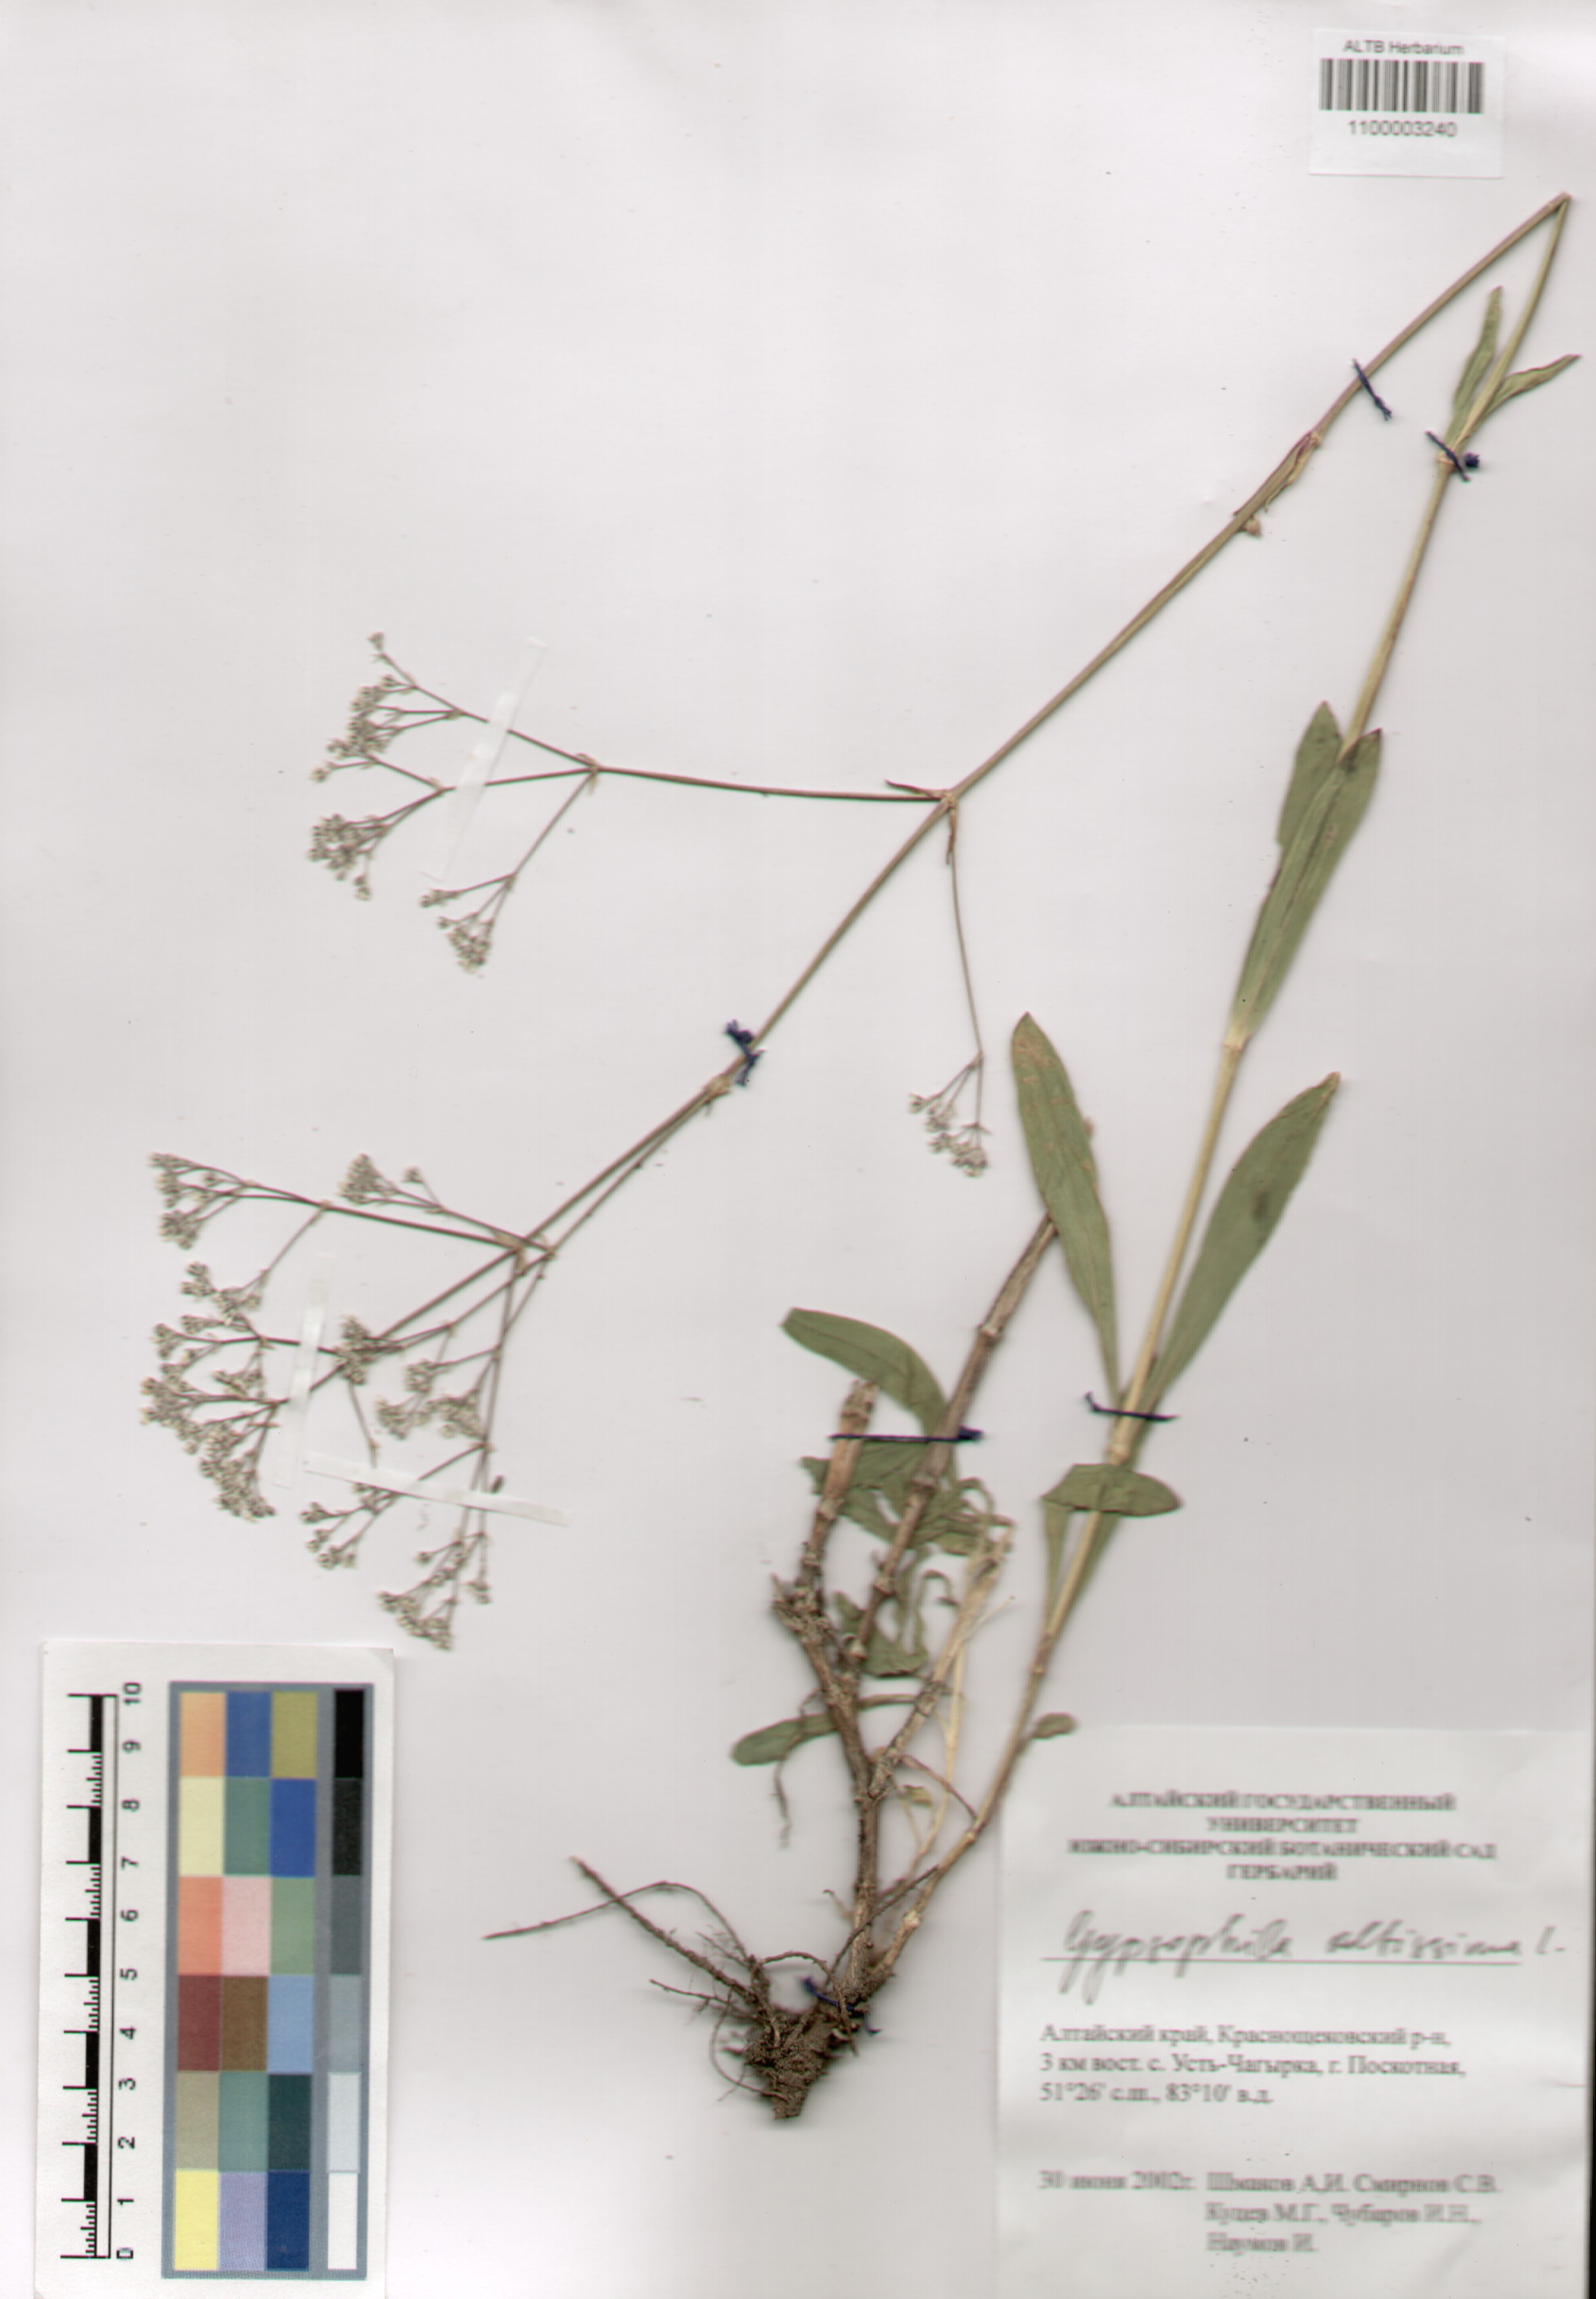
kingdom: Plantae
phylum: Tracheophyta
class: Magnoliopsida
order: Caryophyllales
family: Caryophyllaceae
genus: Gypsophila
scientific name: Gypsophila altissima
